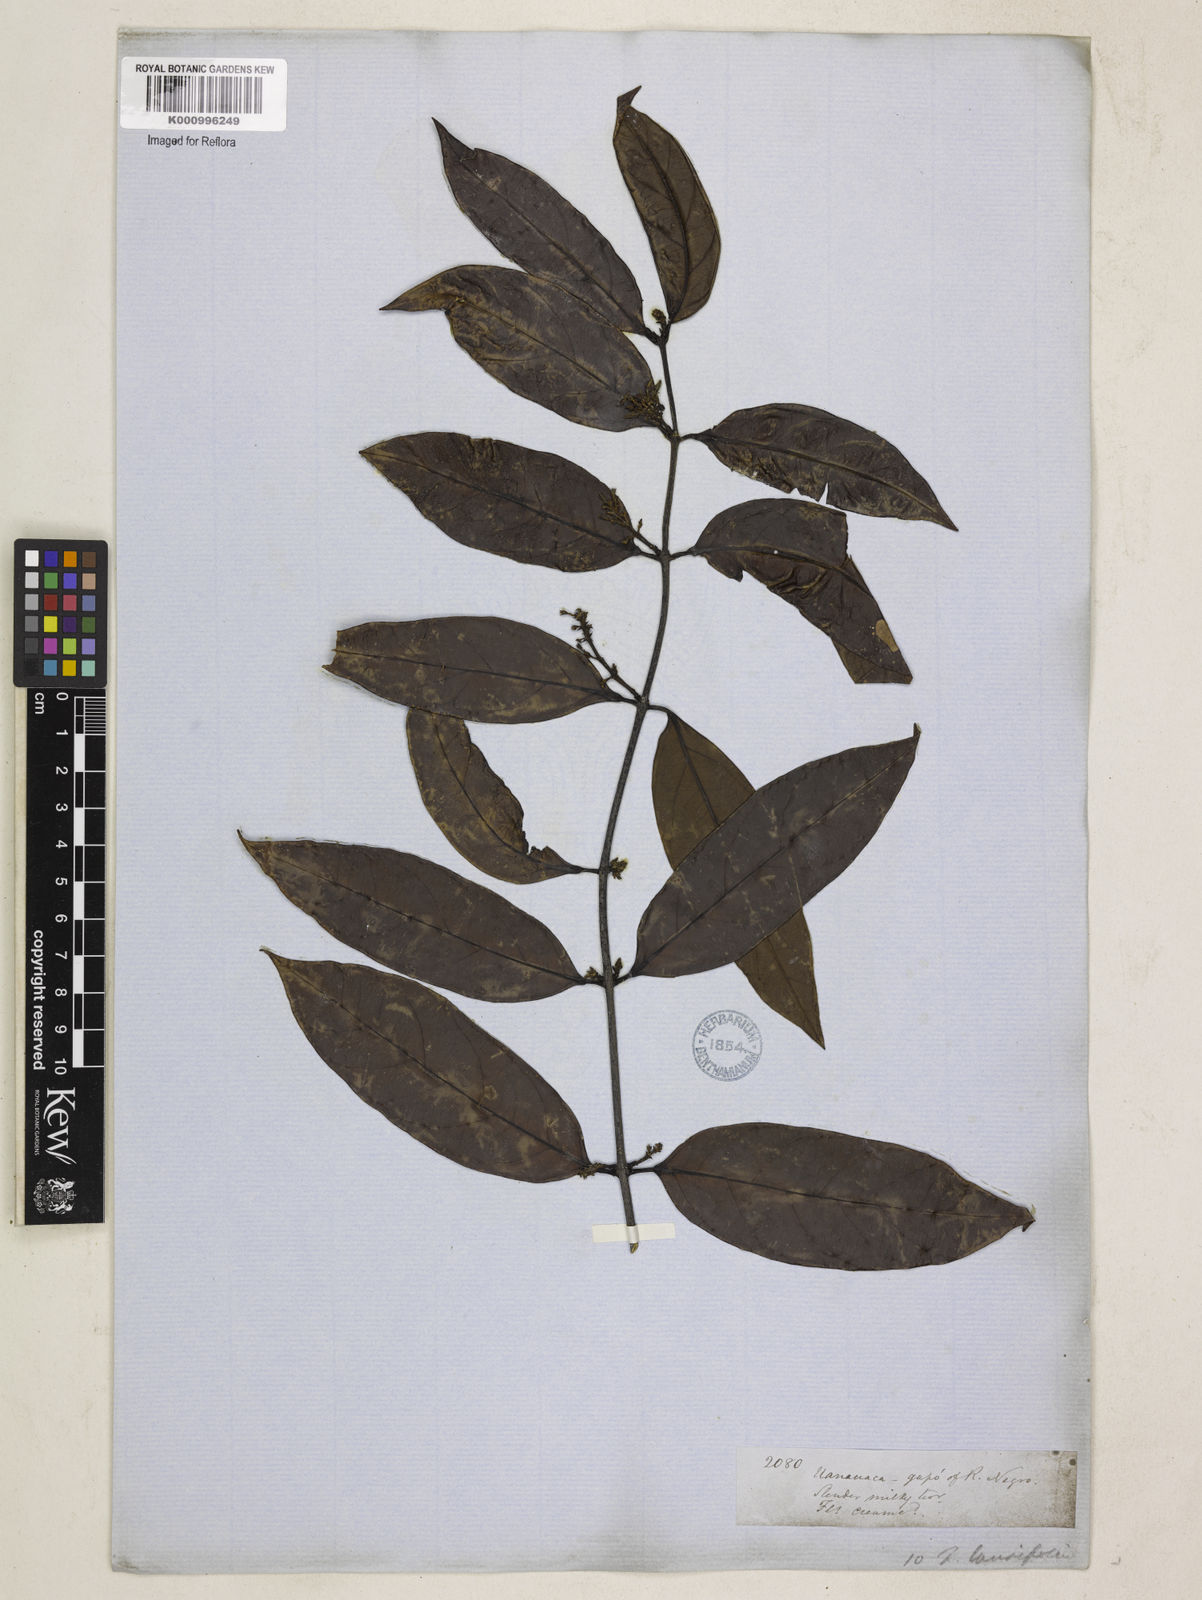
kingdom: Plantae
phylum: Tracheophyta
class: Magnoliopsida
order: Gentianales
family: Apocynaceae
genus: Forsteronia
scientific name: Forsteronia laurifolia
